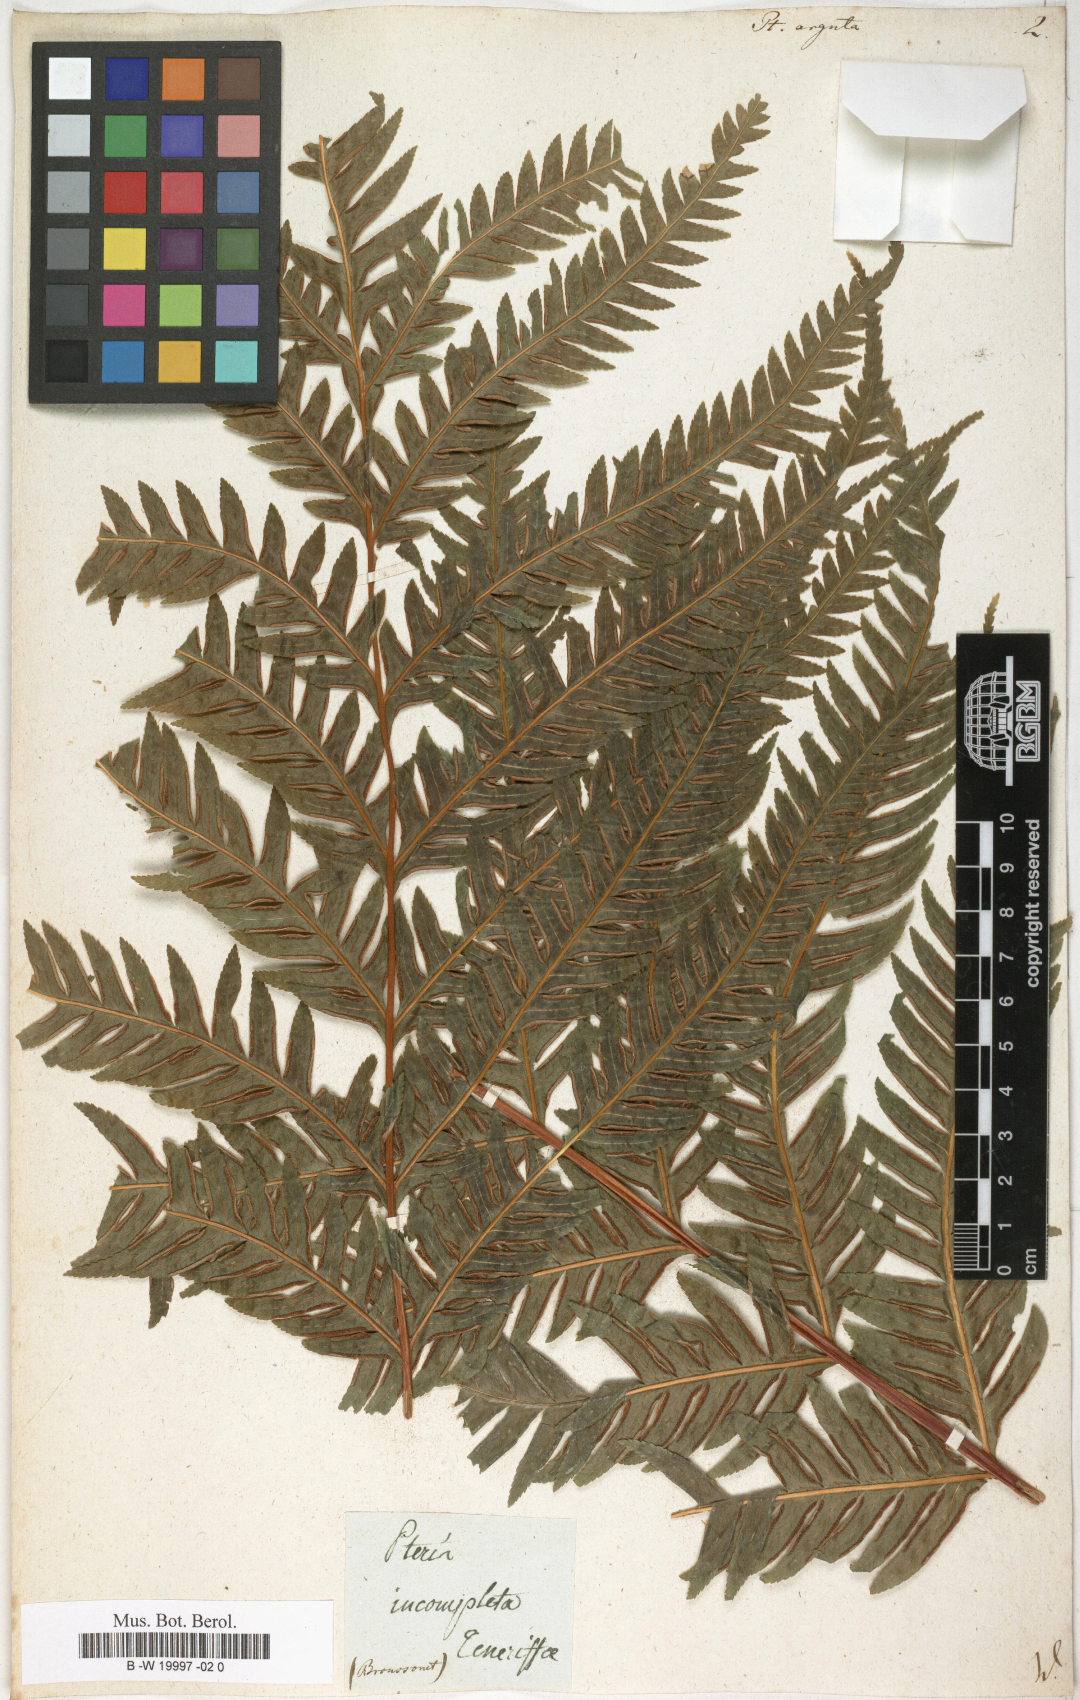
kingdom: Plantae
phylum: Tracheophyta
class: Polypodiopsida
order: Polypodiales
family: Pteridaceae
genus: Pteris
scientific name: Pteris
